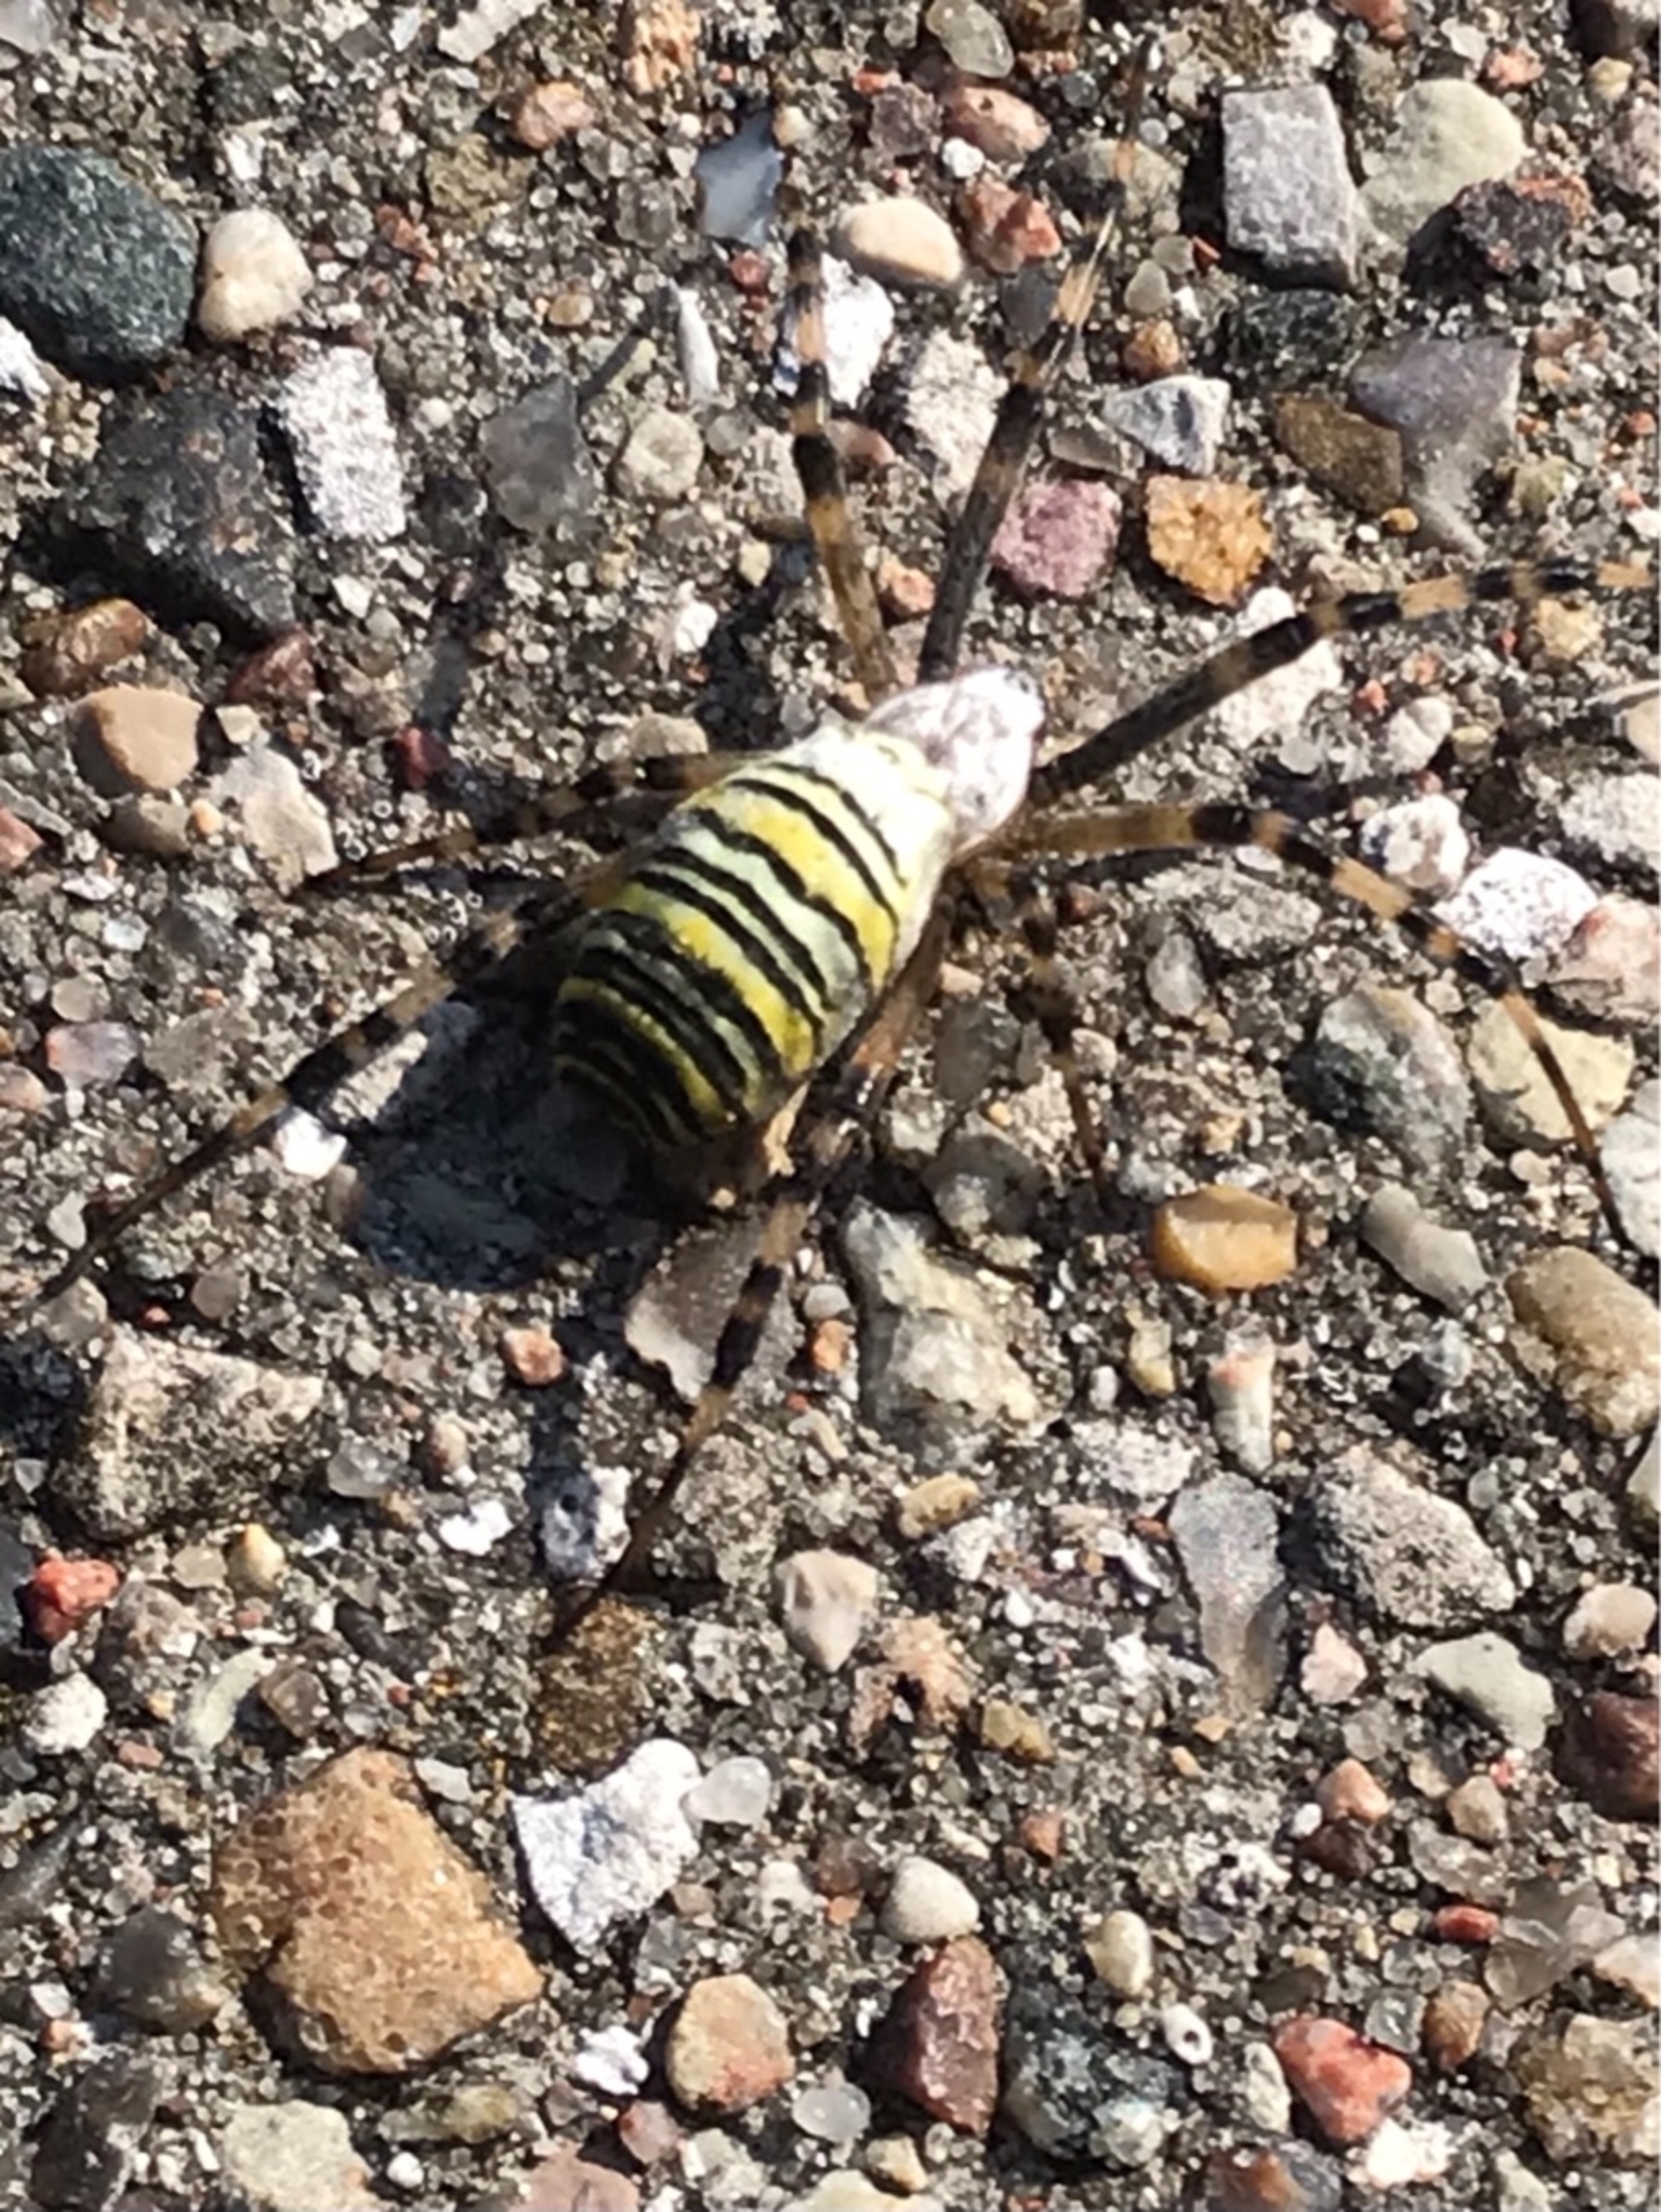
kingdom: Animalia
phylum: Arthropoda
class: Arachnida
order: Araneae
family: Araneidae
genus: Argiope
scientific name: Argiope bruennichi
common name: Hvepseedderkop
